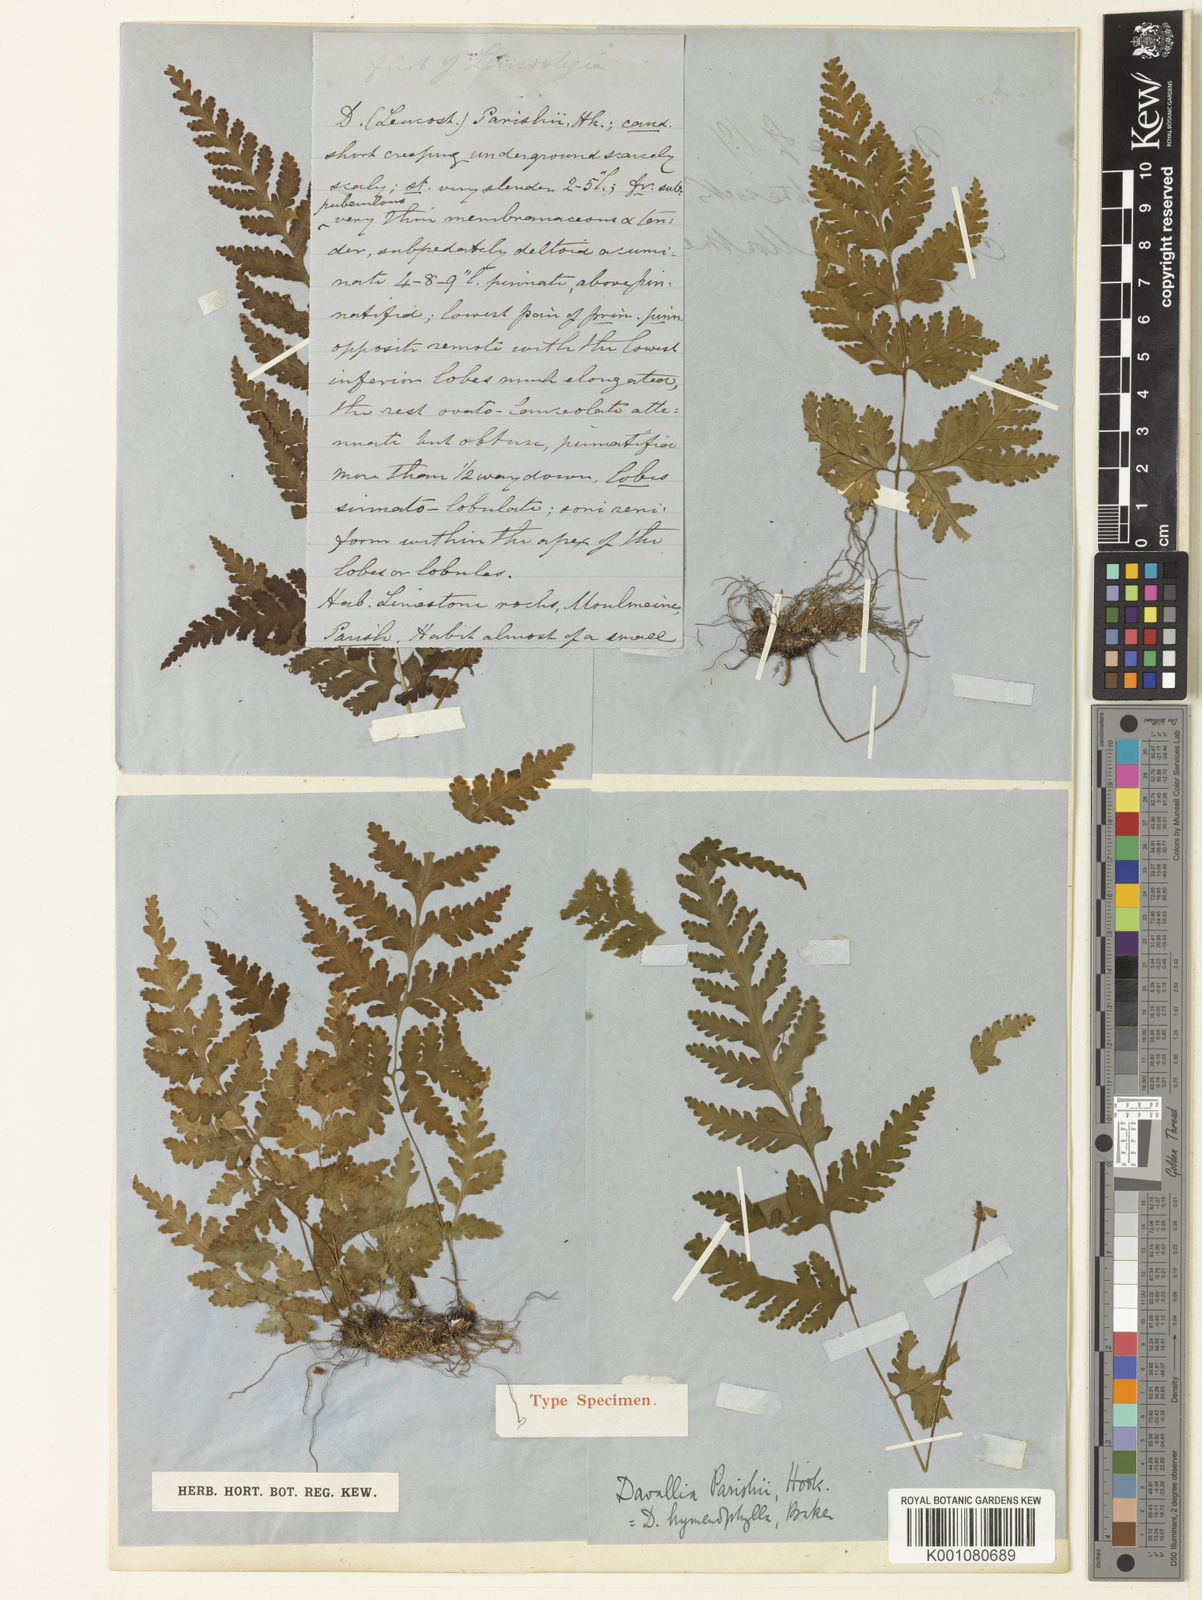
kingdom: Plantae
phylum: Tracheophyta
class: Polypodiopsida
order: Polypodiales
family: Tectariaceae
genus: Tectaria
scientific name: Tectaria hymenophylla
